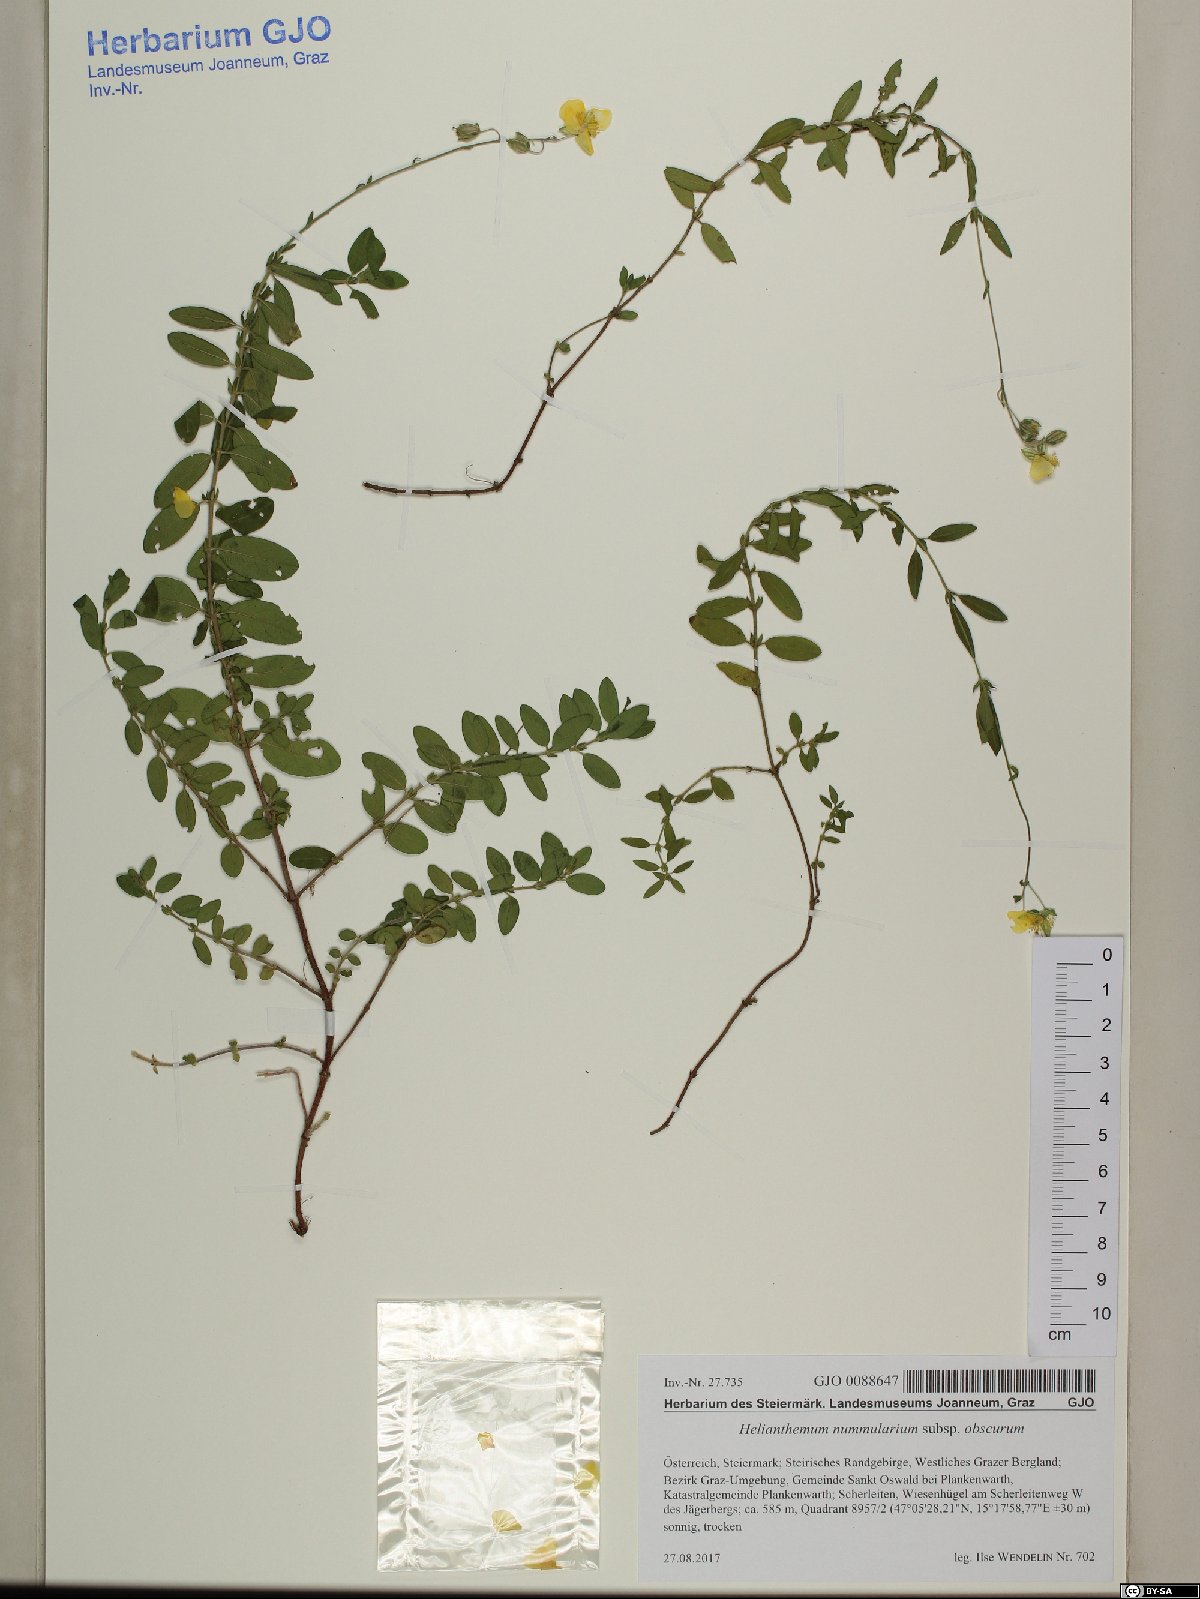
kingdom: Plantae
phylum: Tracheophyta
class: Magnoliopsida
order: Malvales
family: Cistaceae
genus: Helianthemum
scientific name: Helianthemum nummularium
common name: Common rock-rose
